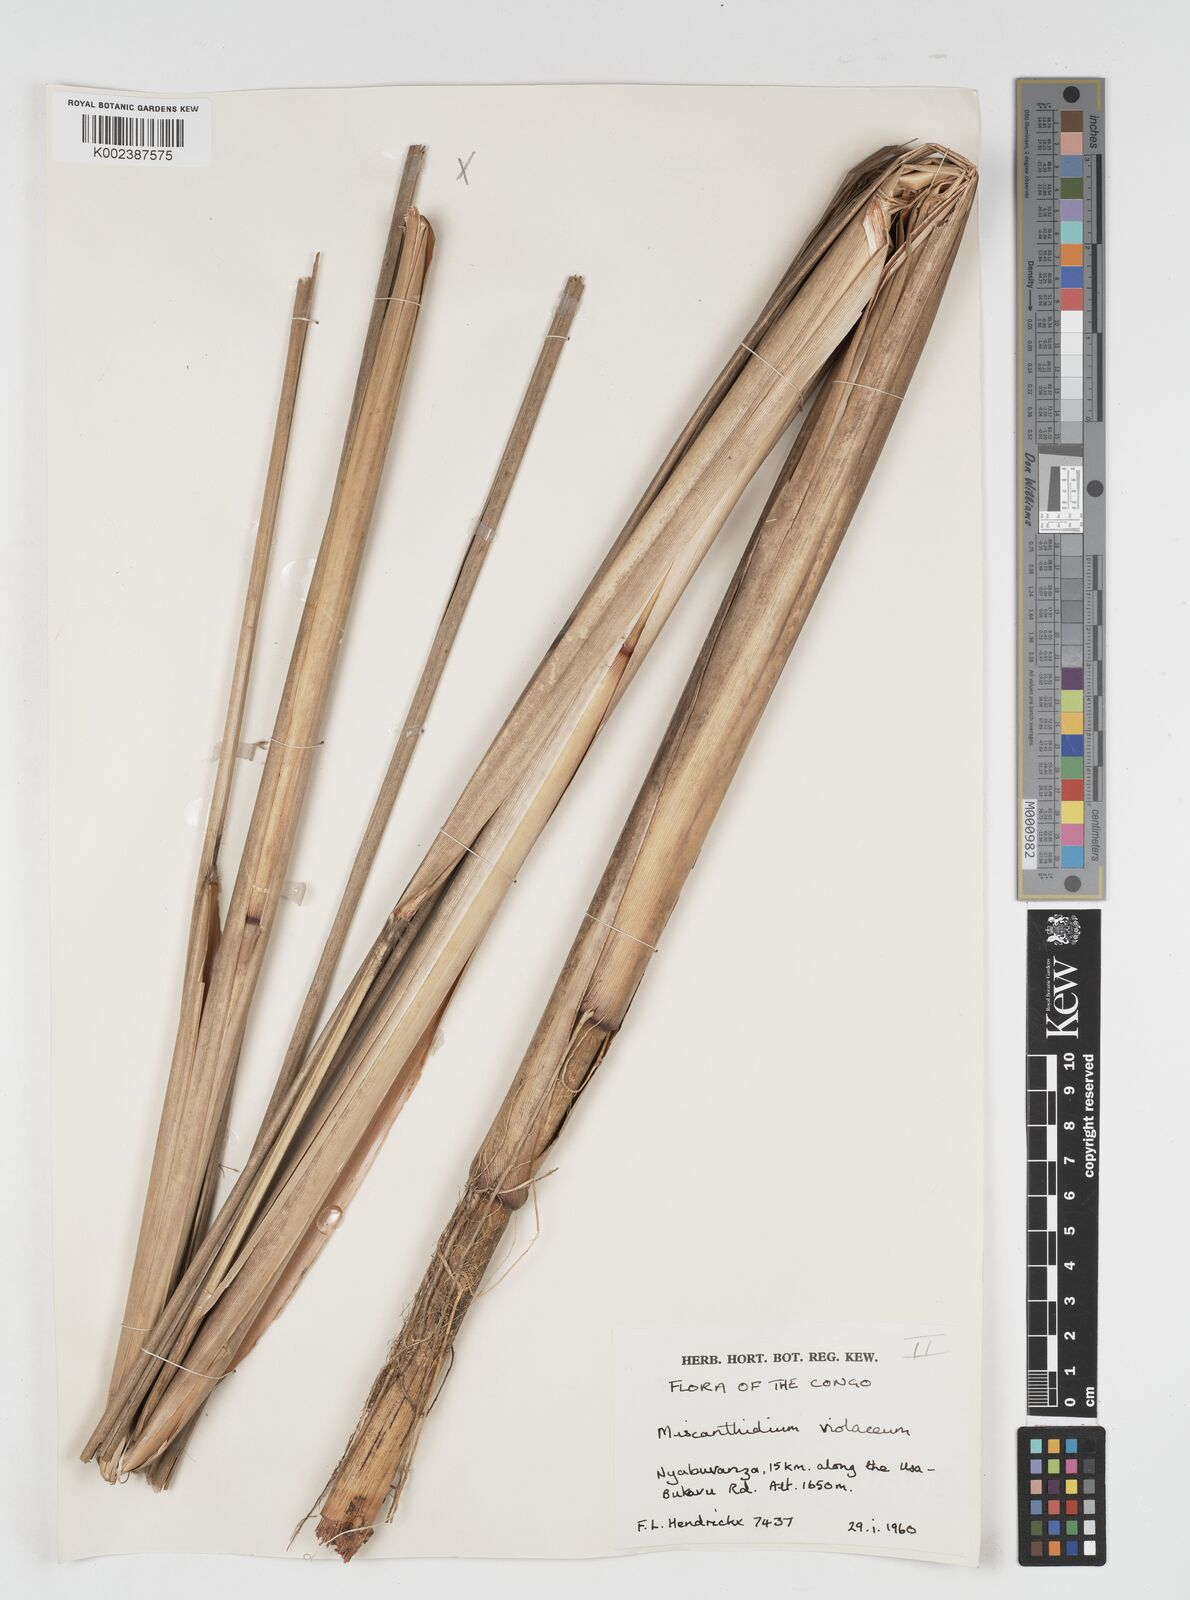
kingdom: Plantae
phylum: Tracheophyta
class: Liliopsida
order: Poales
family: Poaceae
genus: Miscanthidium
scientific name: Miscanthidium violaceum
